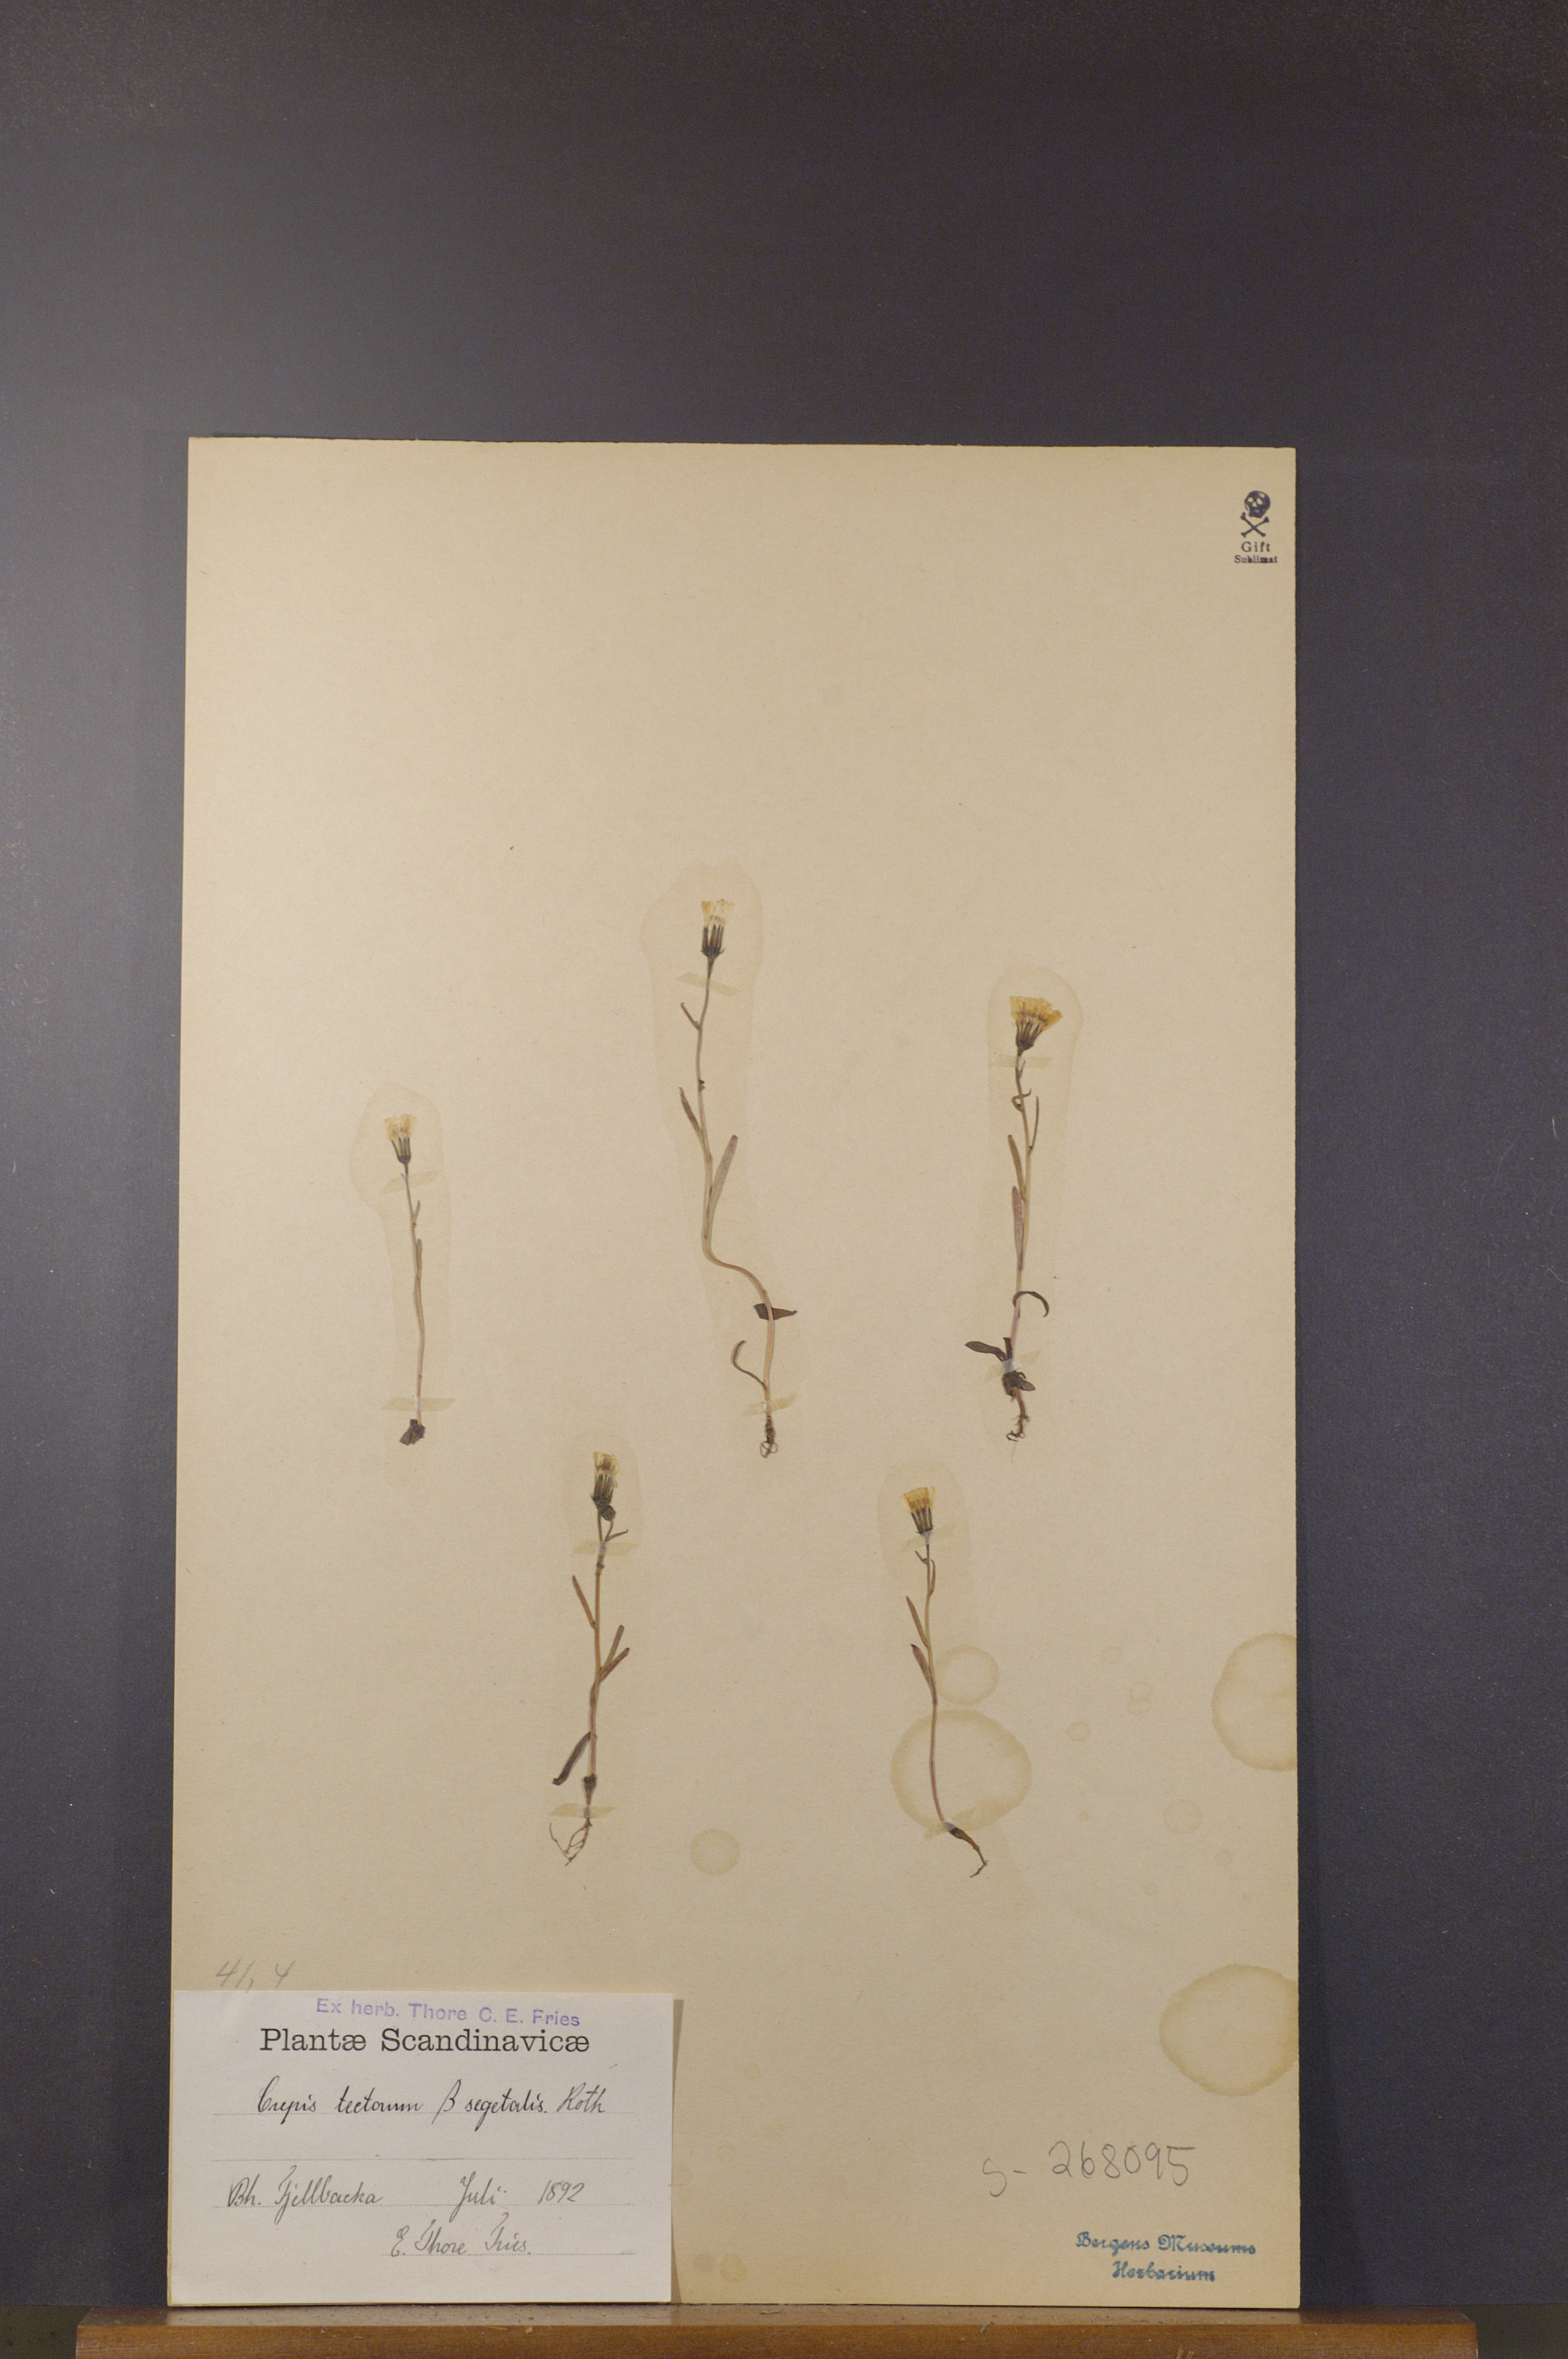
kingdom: Plantae
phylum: Tracheophyta
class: Magnoliopsida
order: Asterales
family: Asteraceae
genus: Crepis
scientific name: Crepis tectorum
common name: Narrow-leaved hawk's-beard
